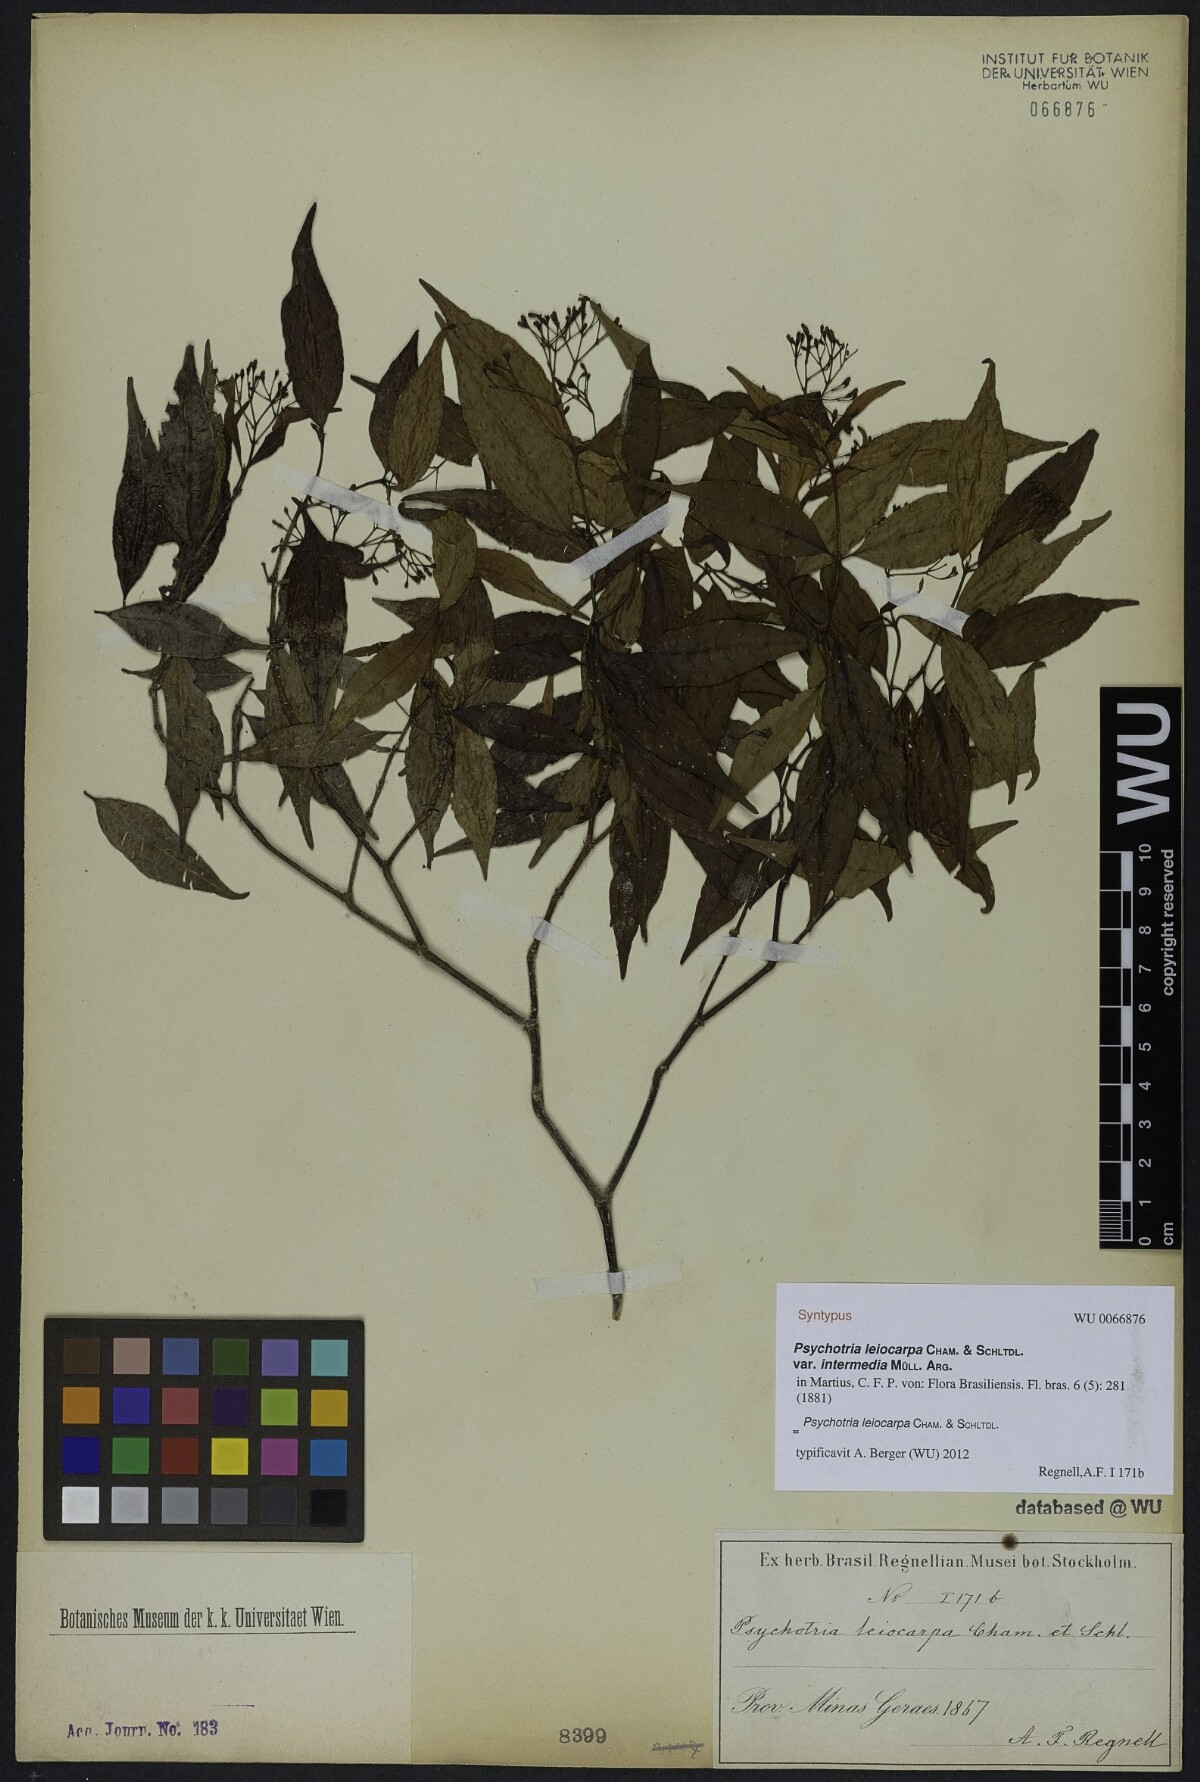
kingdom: Plantae
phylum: Tracheophyta
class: Magnoliopsida
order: Gentianales
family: Rubiaceae
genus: Psychotria
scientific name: Psychotria leiocarpa
